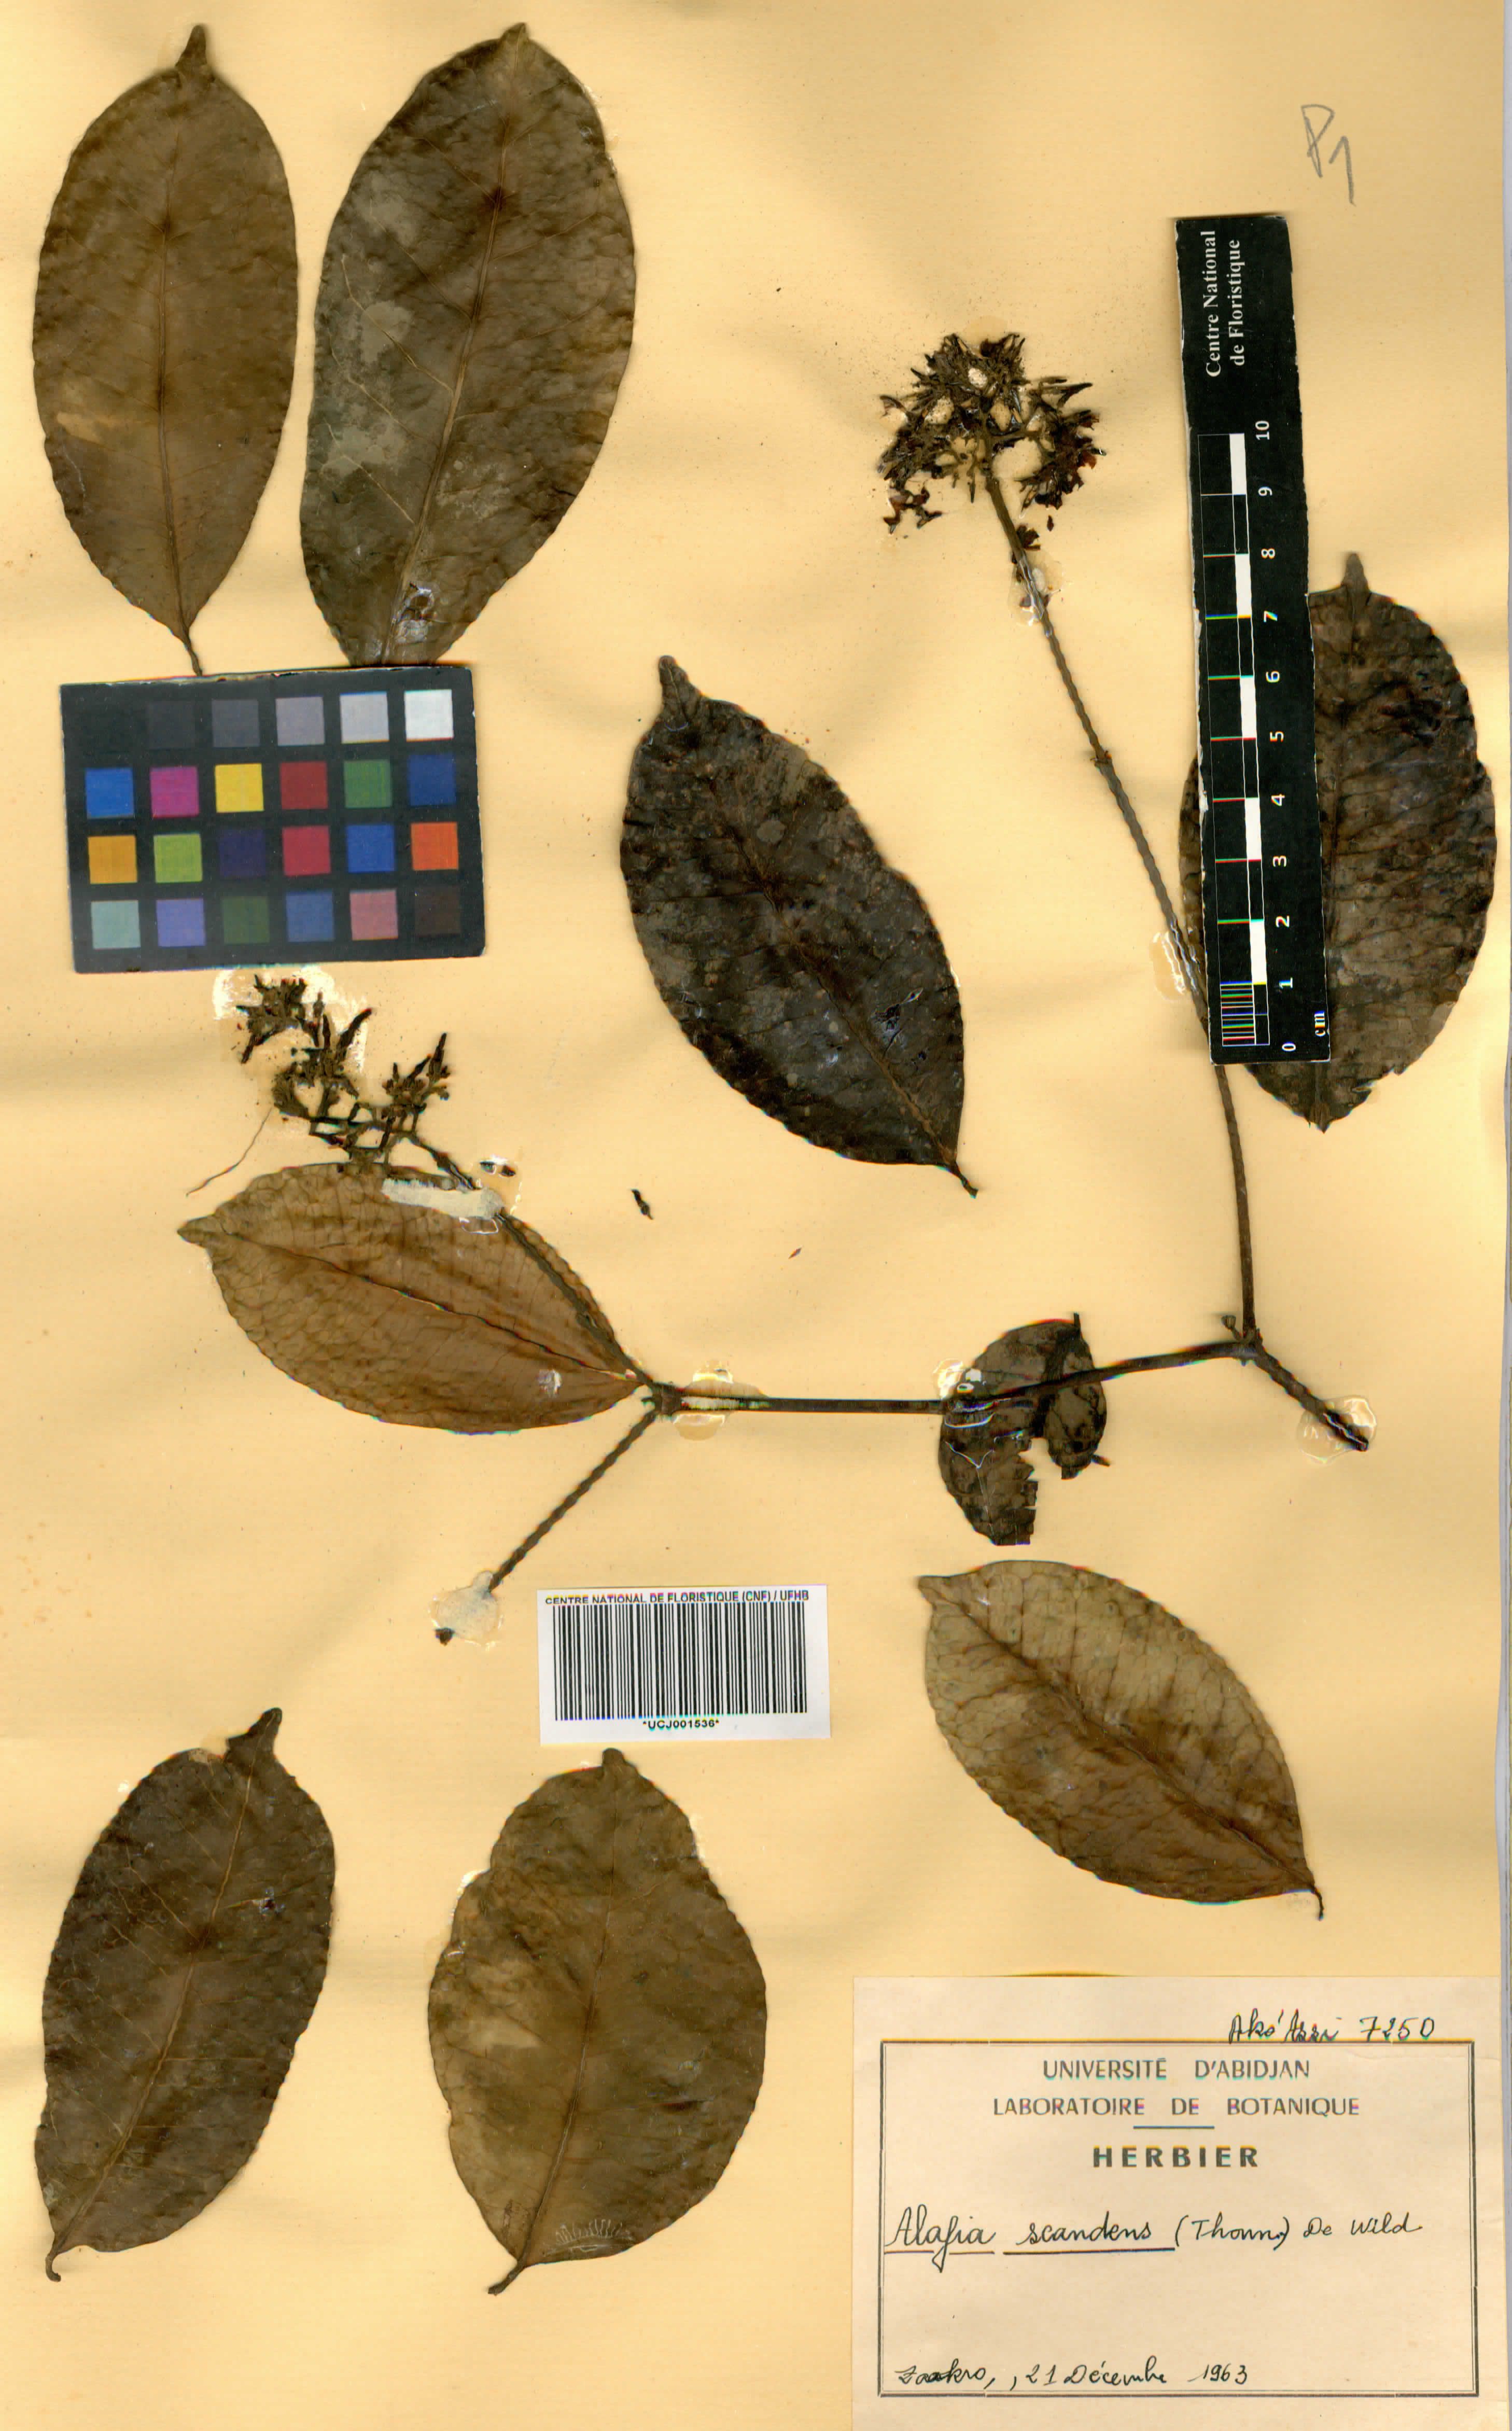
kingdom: Plantae
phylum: Tracheophyta
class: Magnoliopsida
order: Gentianales
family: Apocynaceae
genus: Alafia
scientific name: Alafia scandens
